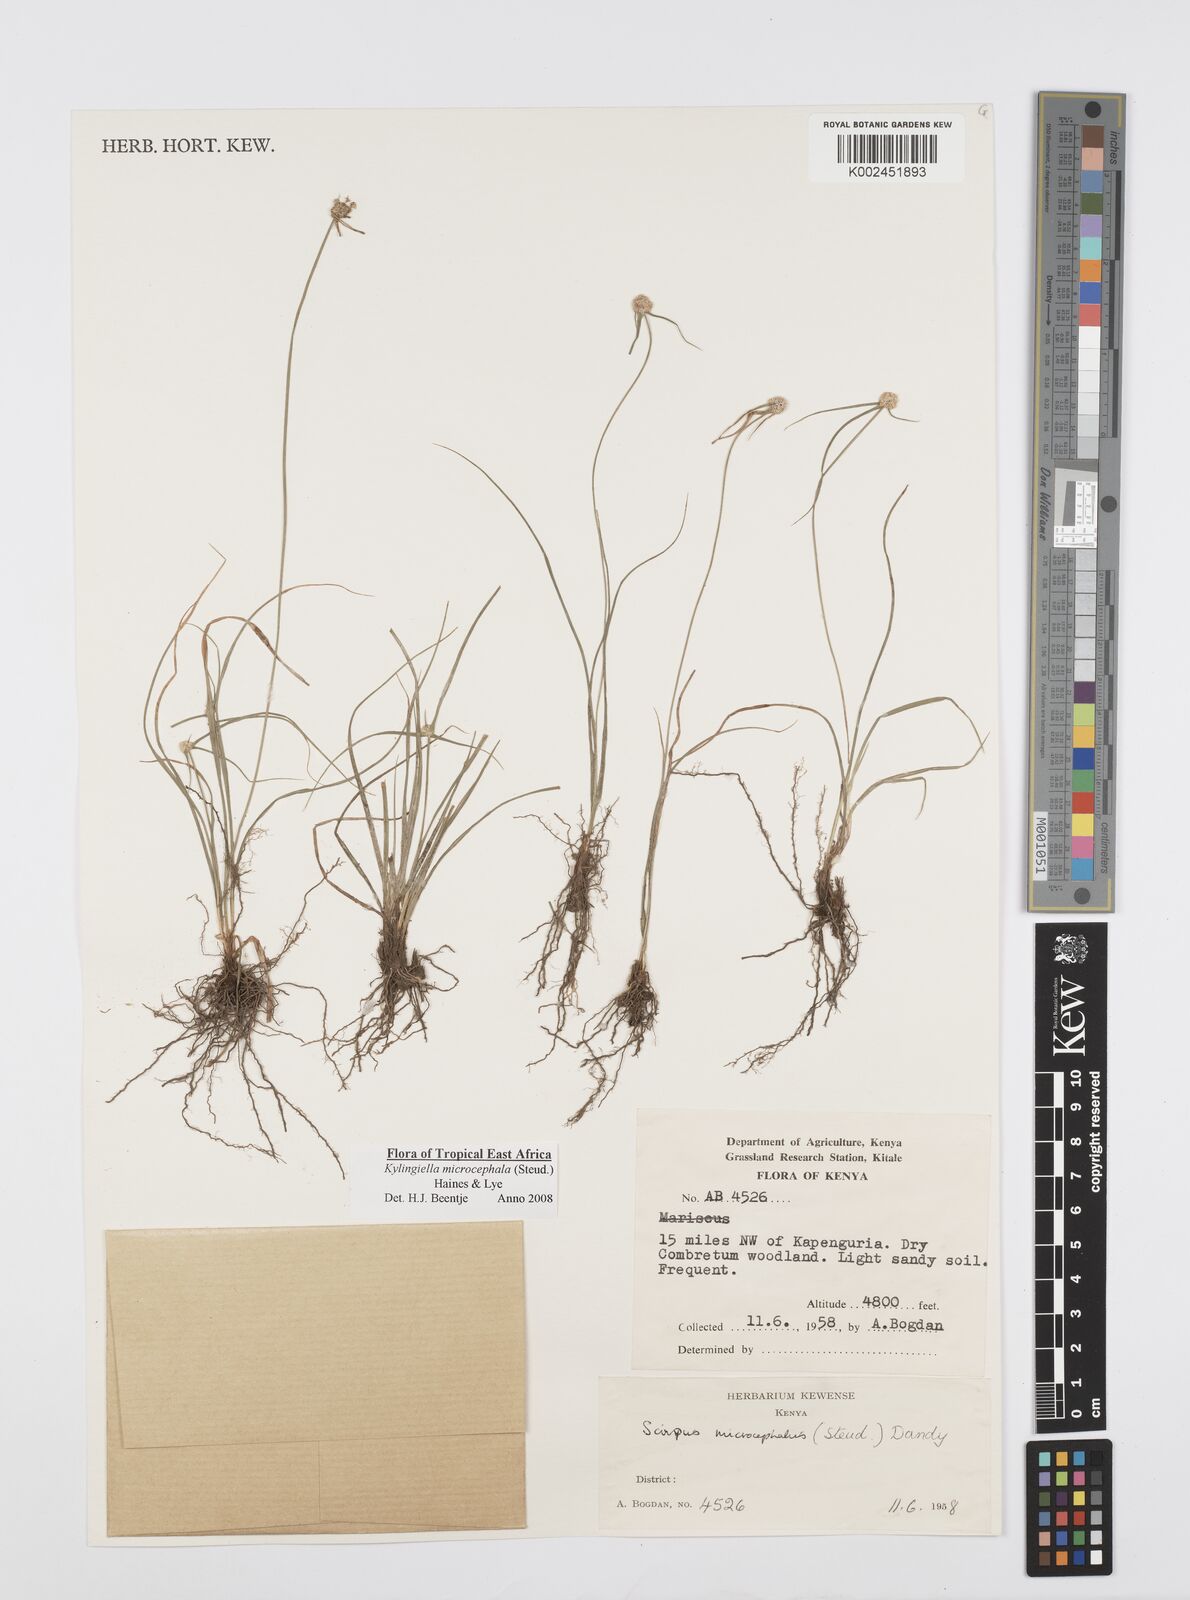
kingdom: Plantae
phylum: Tracheophyta
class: Liliopsida
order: Poales
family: Cyperaceae
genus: Cyperus
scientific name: Cyperus microcephalus
